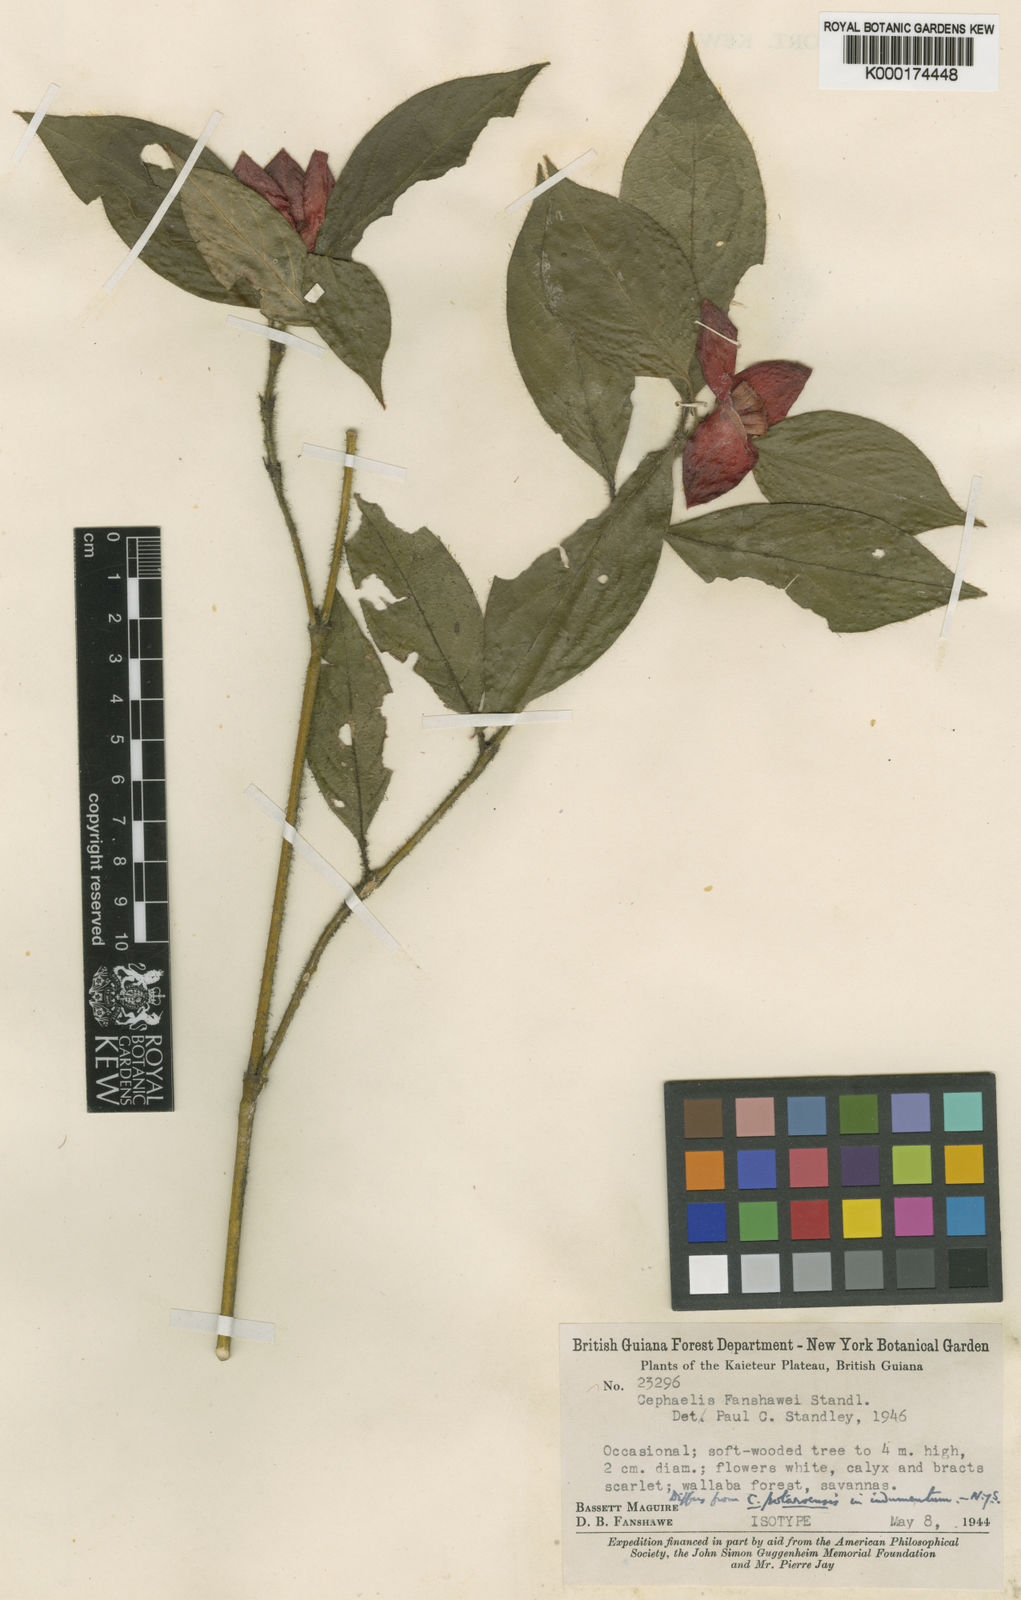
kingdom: Plantae
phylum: Tracheophyta
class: Magnoliopsida
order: Gentianales
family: Rubiaceae
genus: Palicourea
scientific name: Palicourea fanshawei
